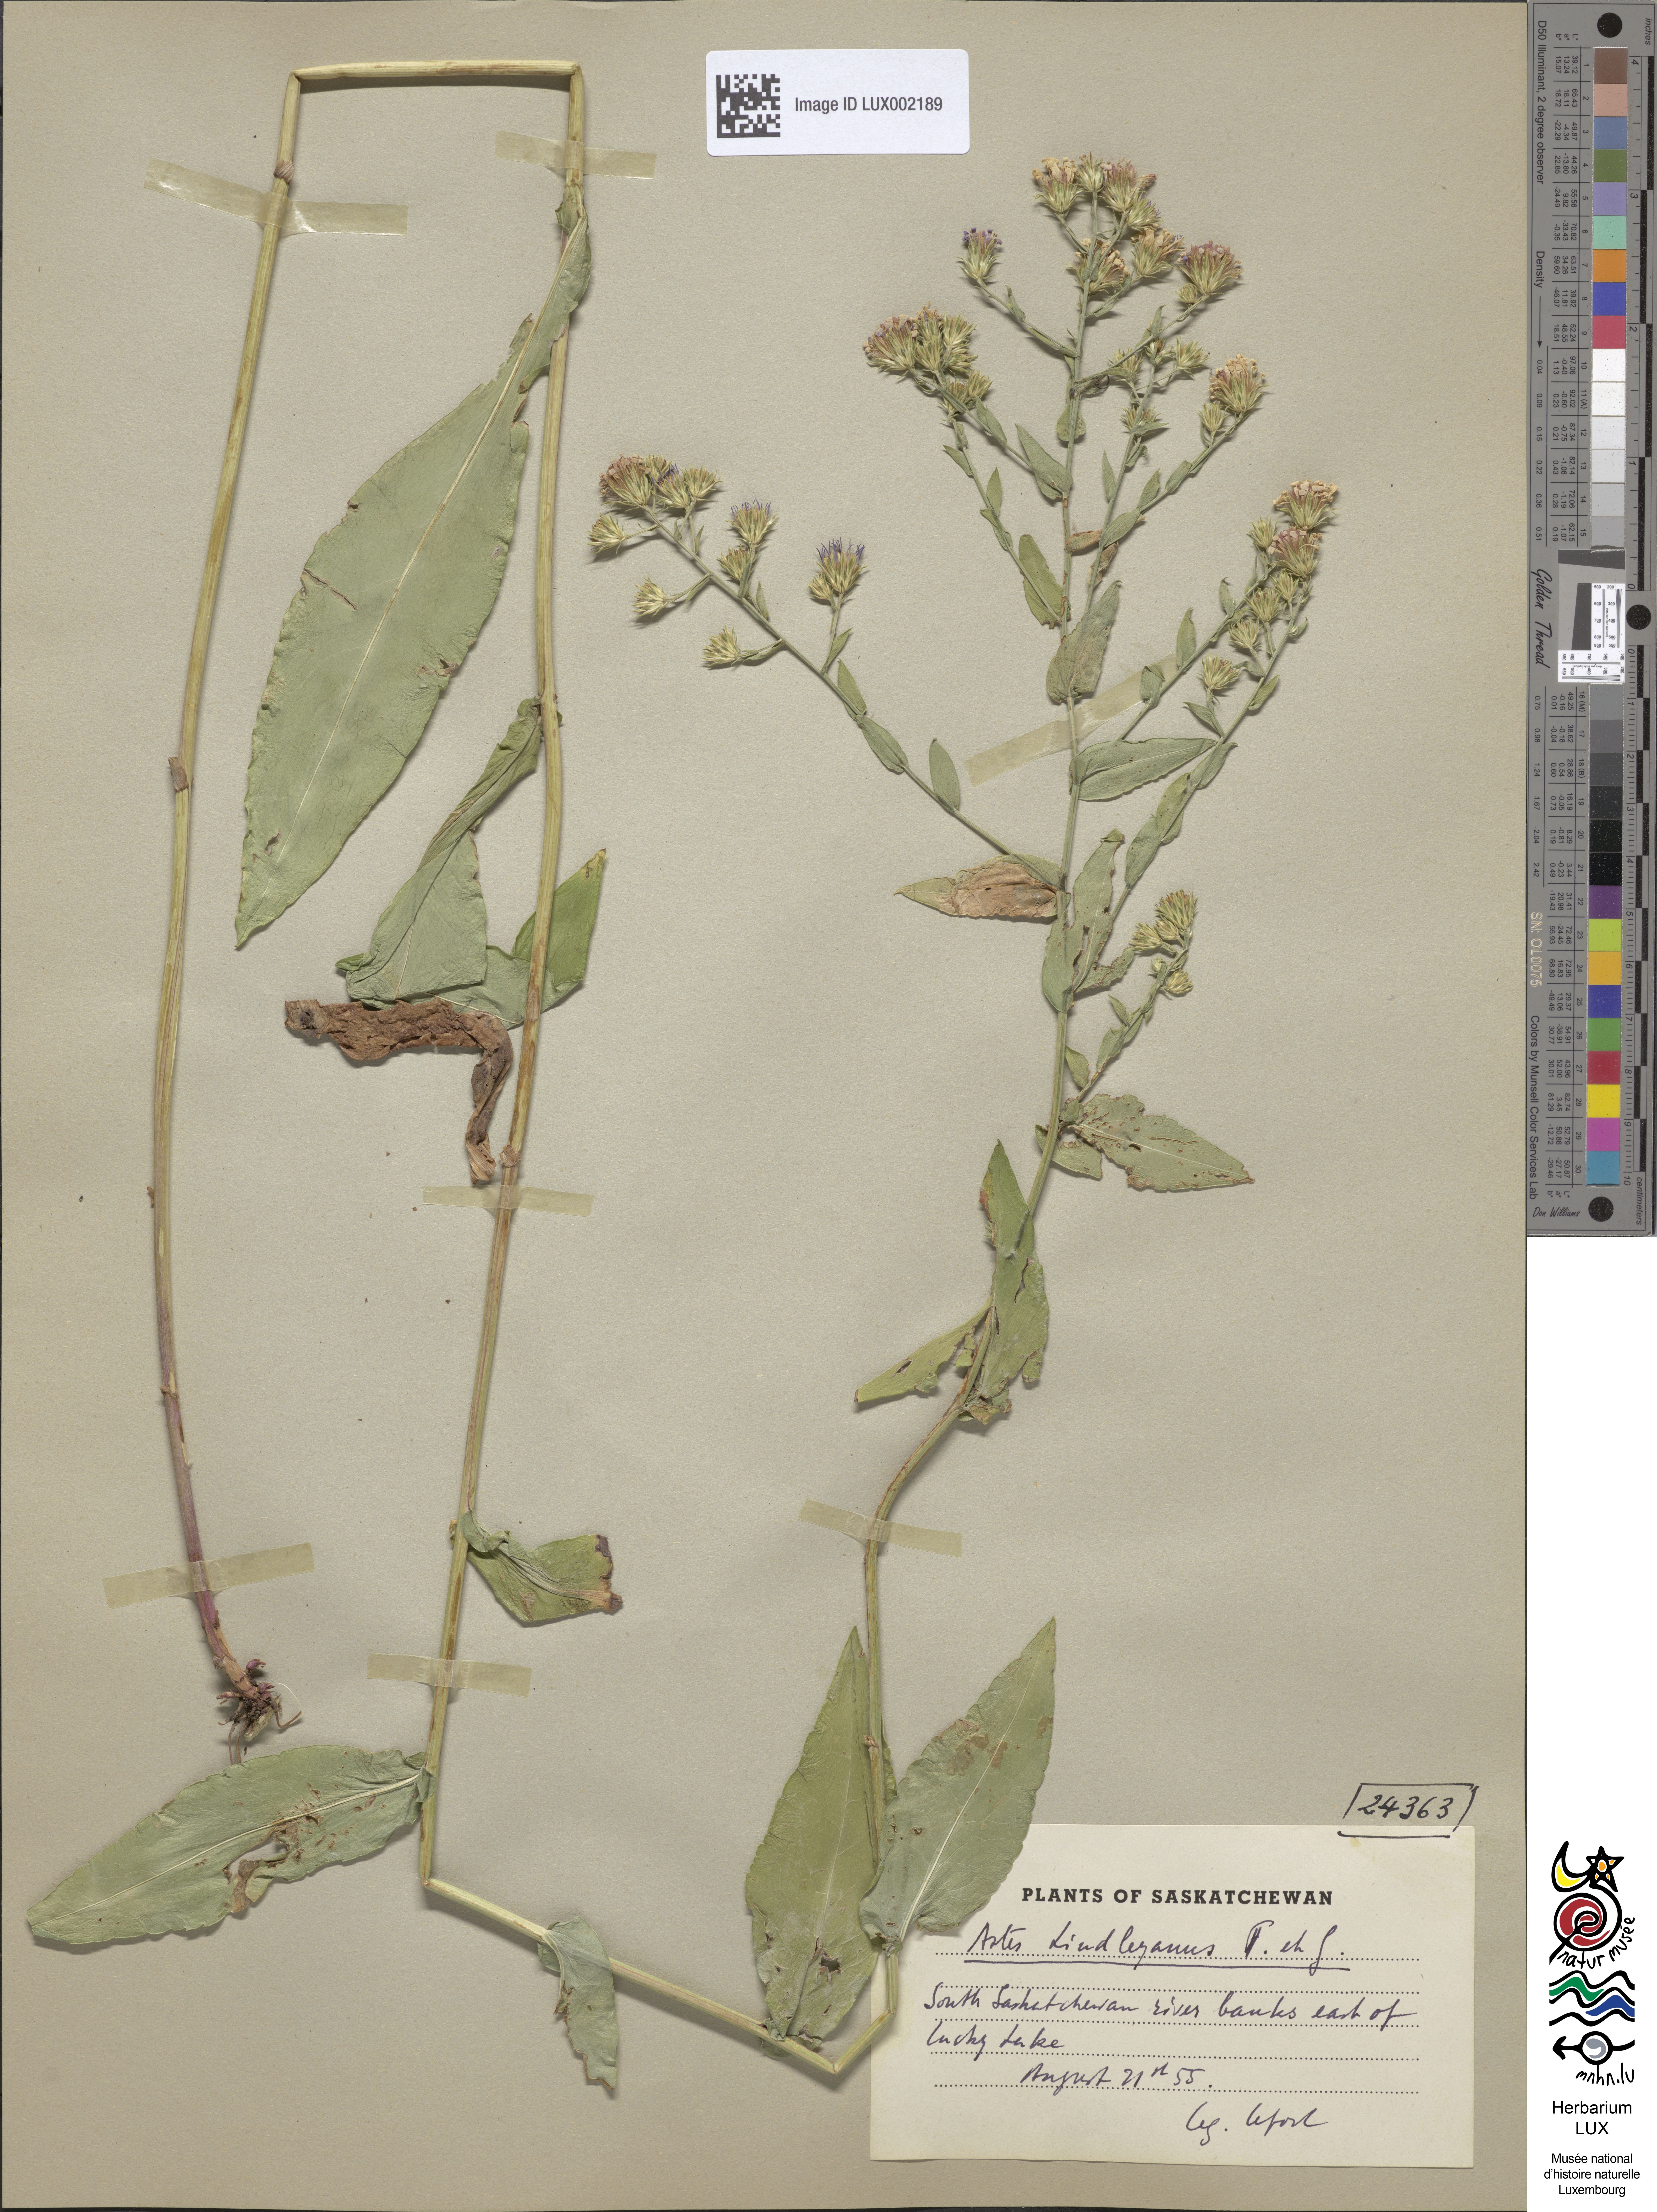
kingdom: Plantae
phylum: Tracheophyta
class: Magnoliopsida
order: Asterales
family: Asteraceae
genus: Symphyotrichum
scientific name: Symphyotrichum ciliolatum
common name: Fringed blue aster
